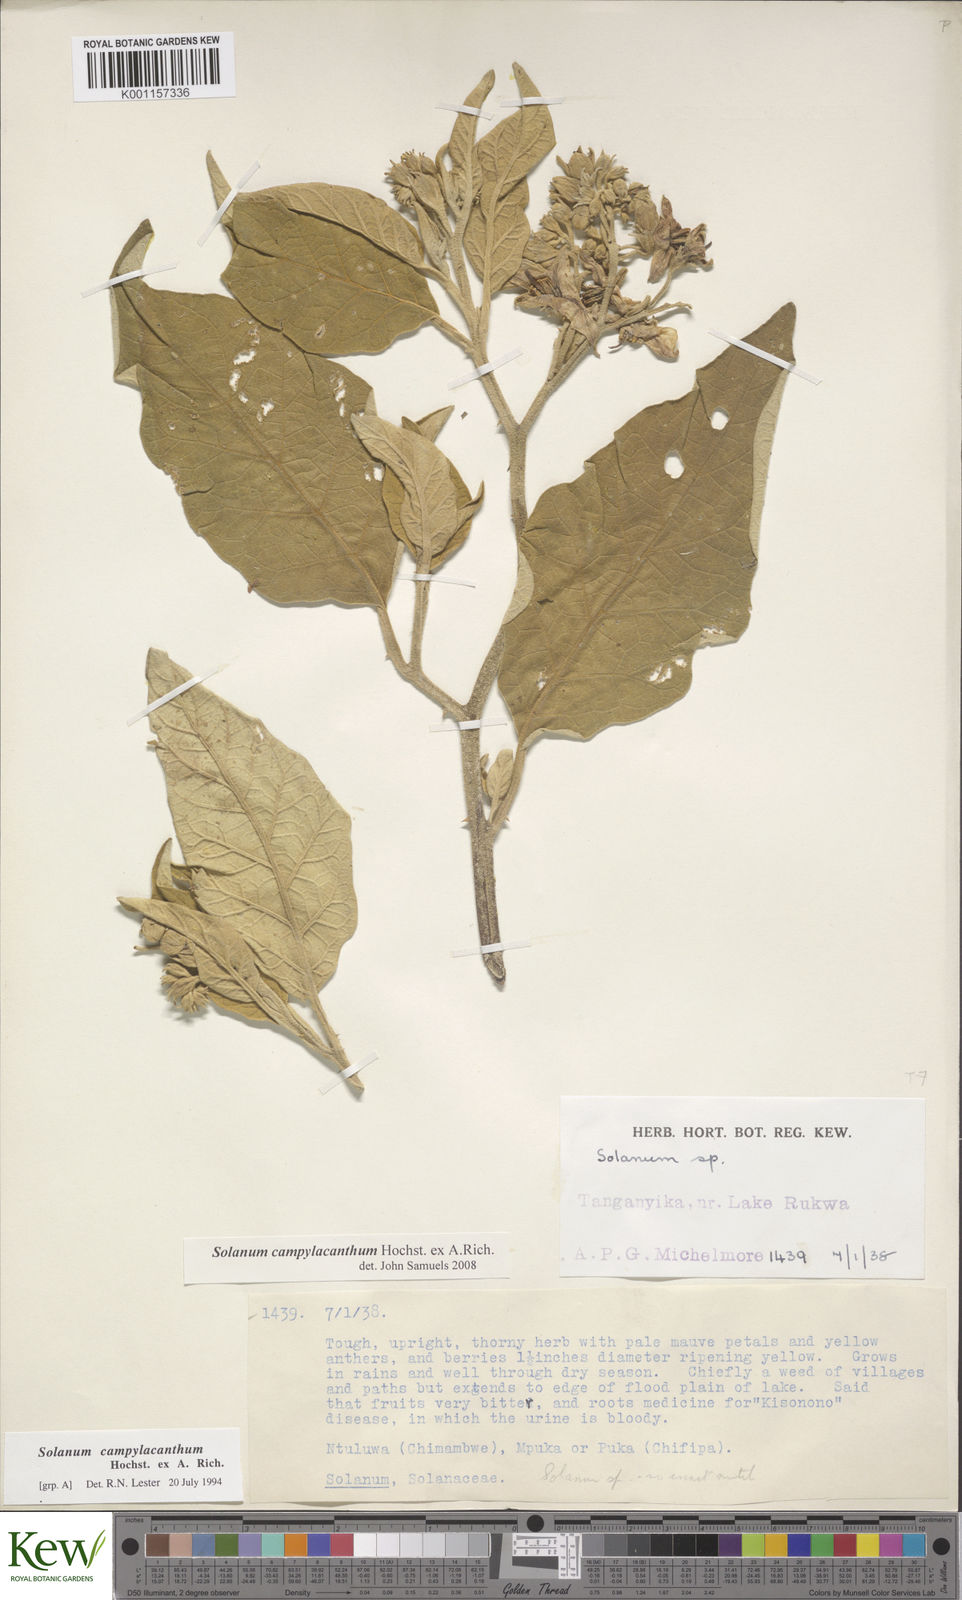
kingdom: Plantae
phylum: Tracheophyta
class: Magnoliopsida
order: Solanales
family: Solanaceae
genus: Solanum
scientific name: Solanum campylacanthum
